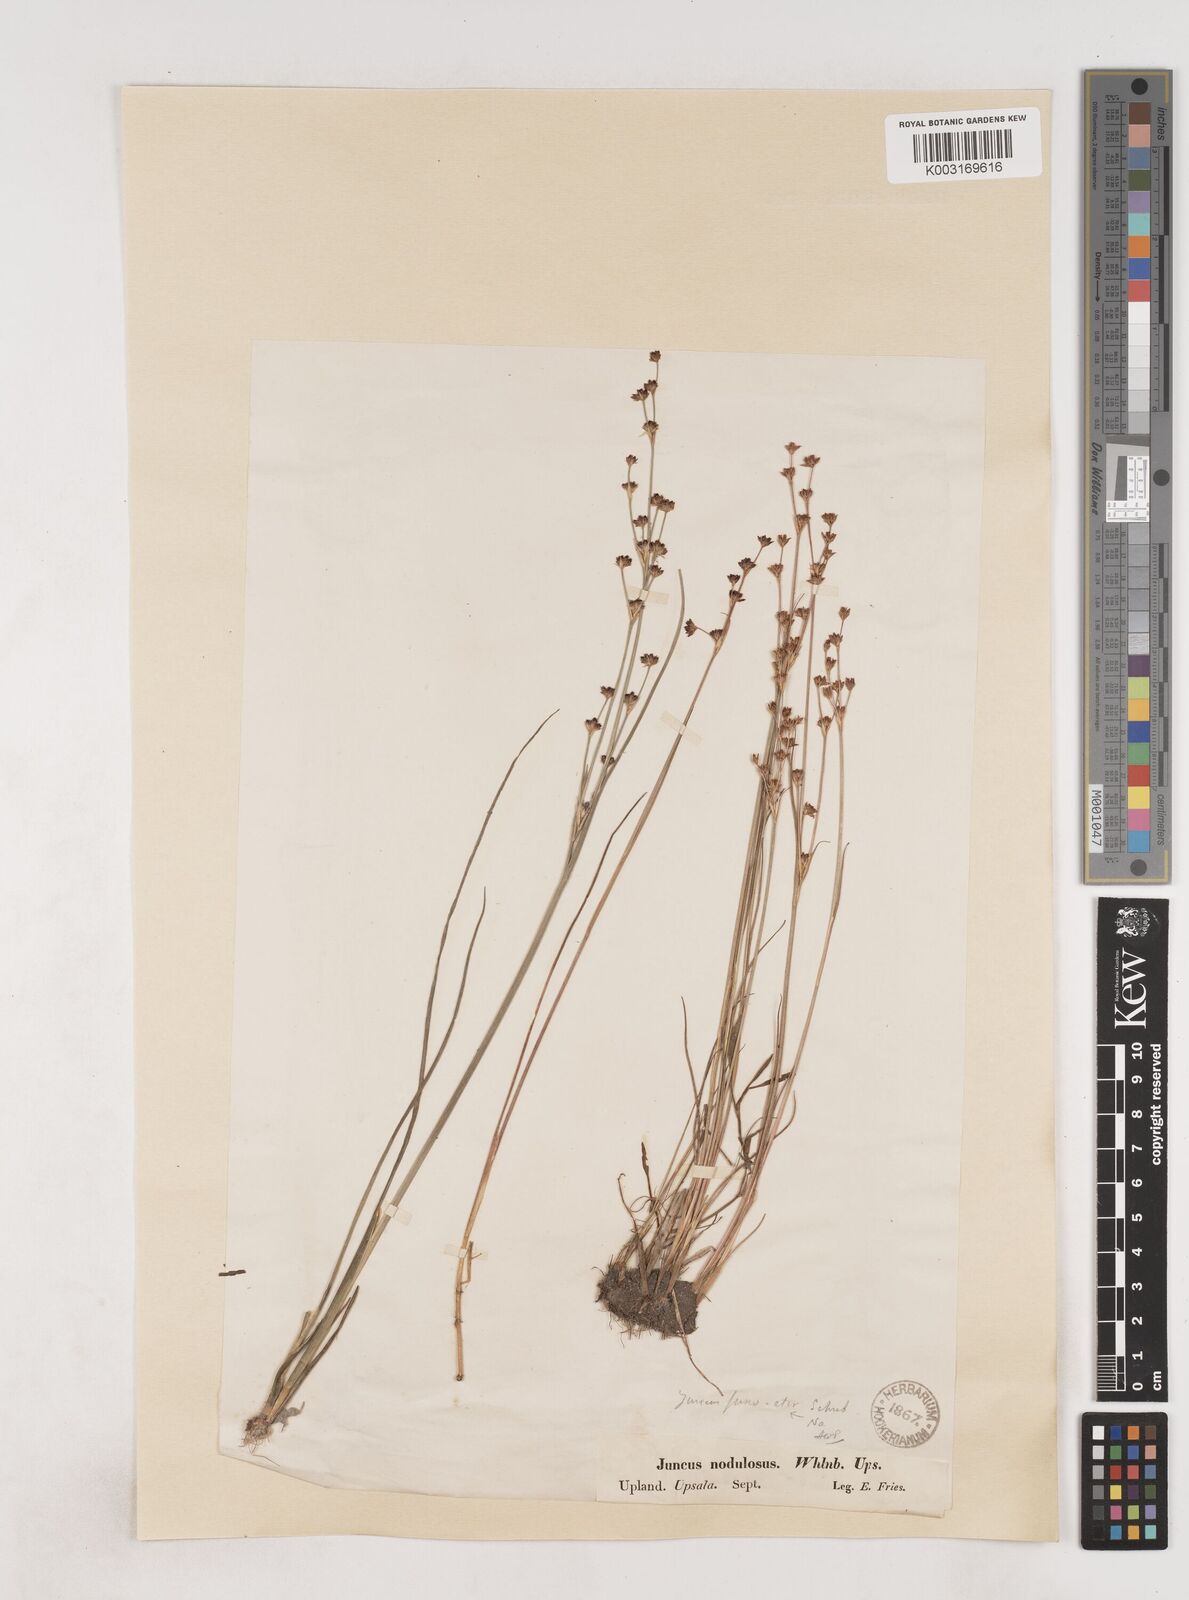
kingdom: Plantae
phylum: Tracheophyta
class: Liliopsida
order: Poales
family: Juncaceae
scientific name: Juncaceae
